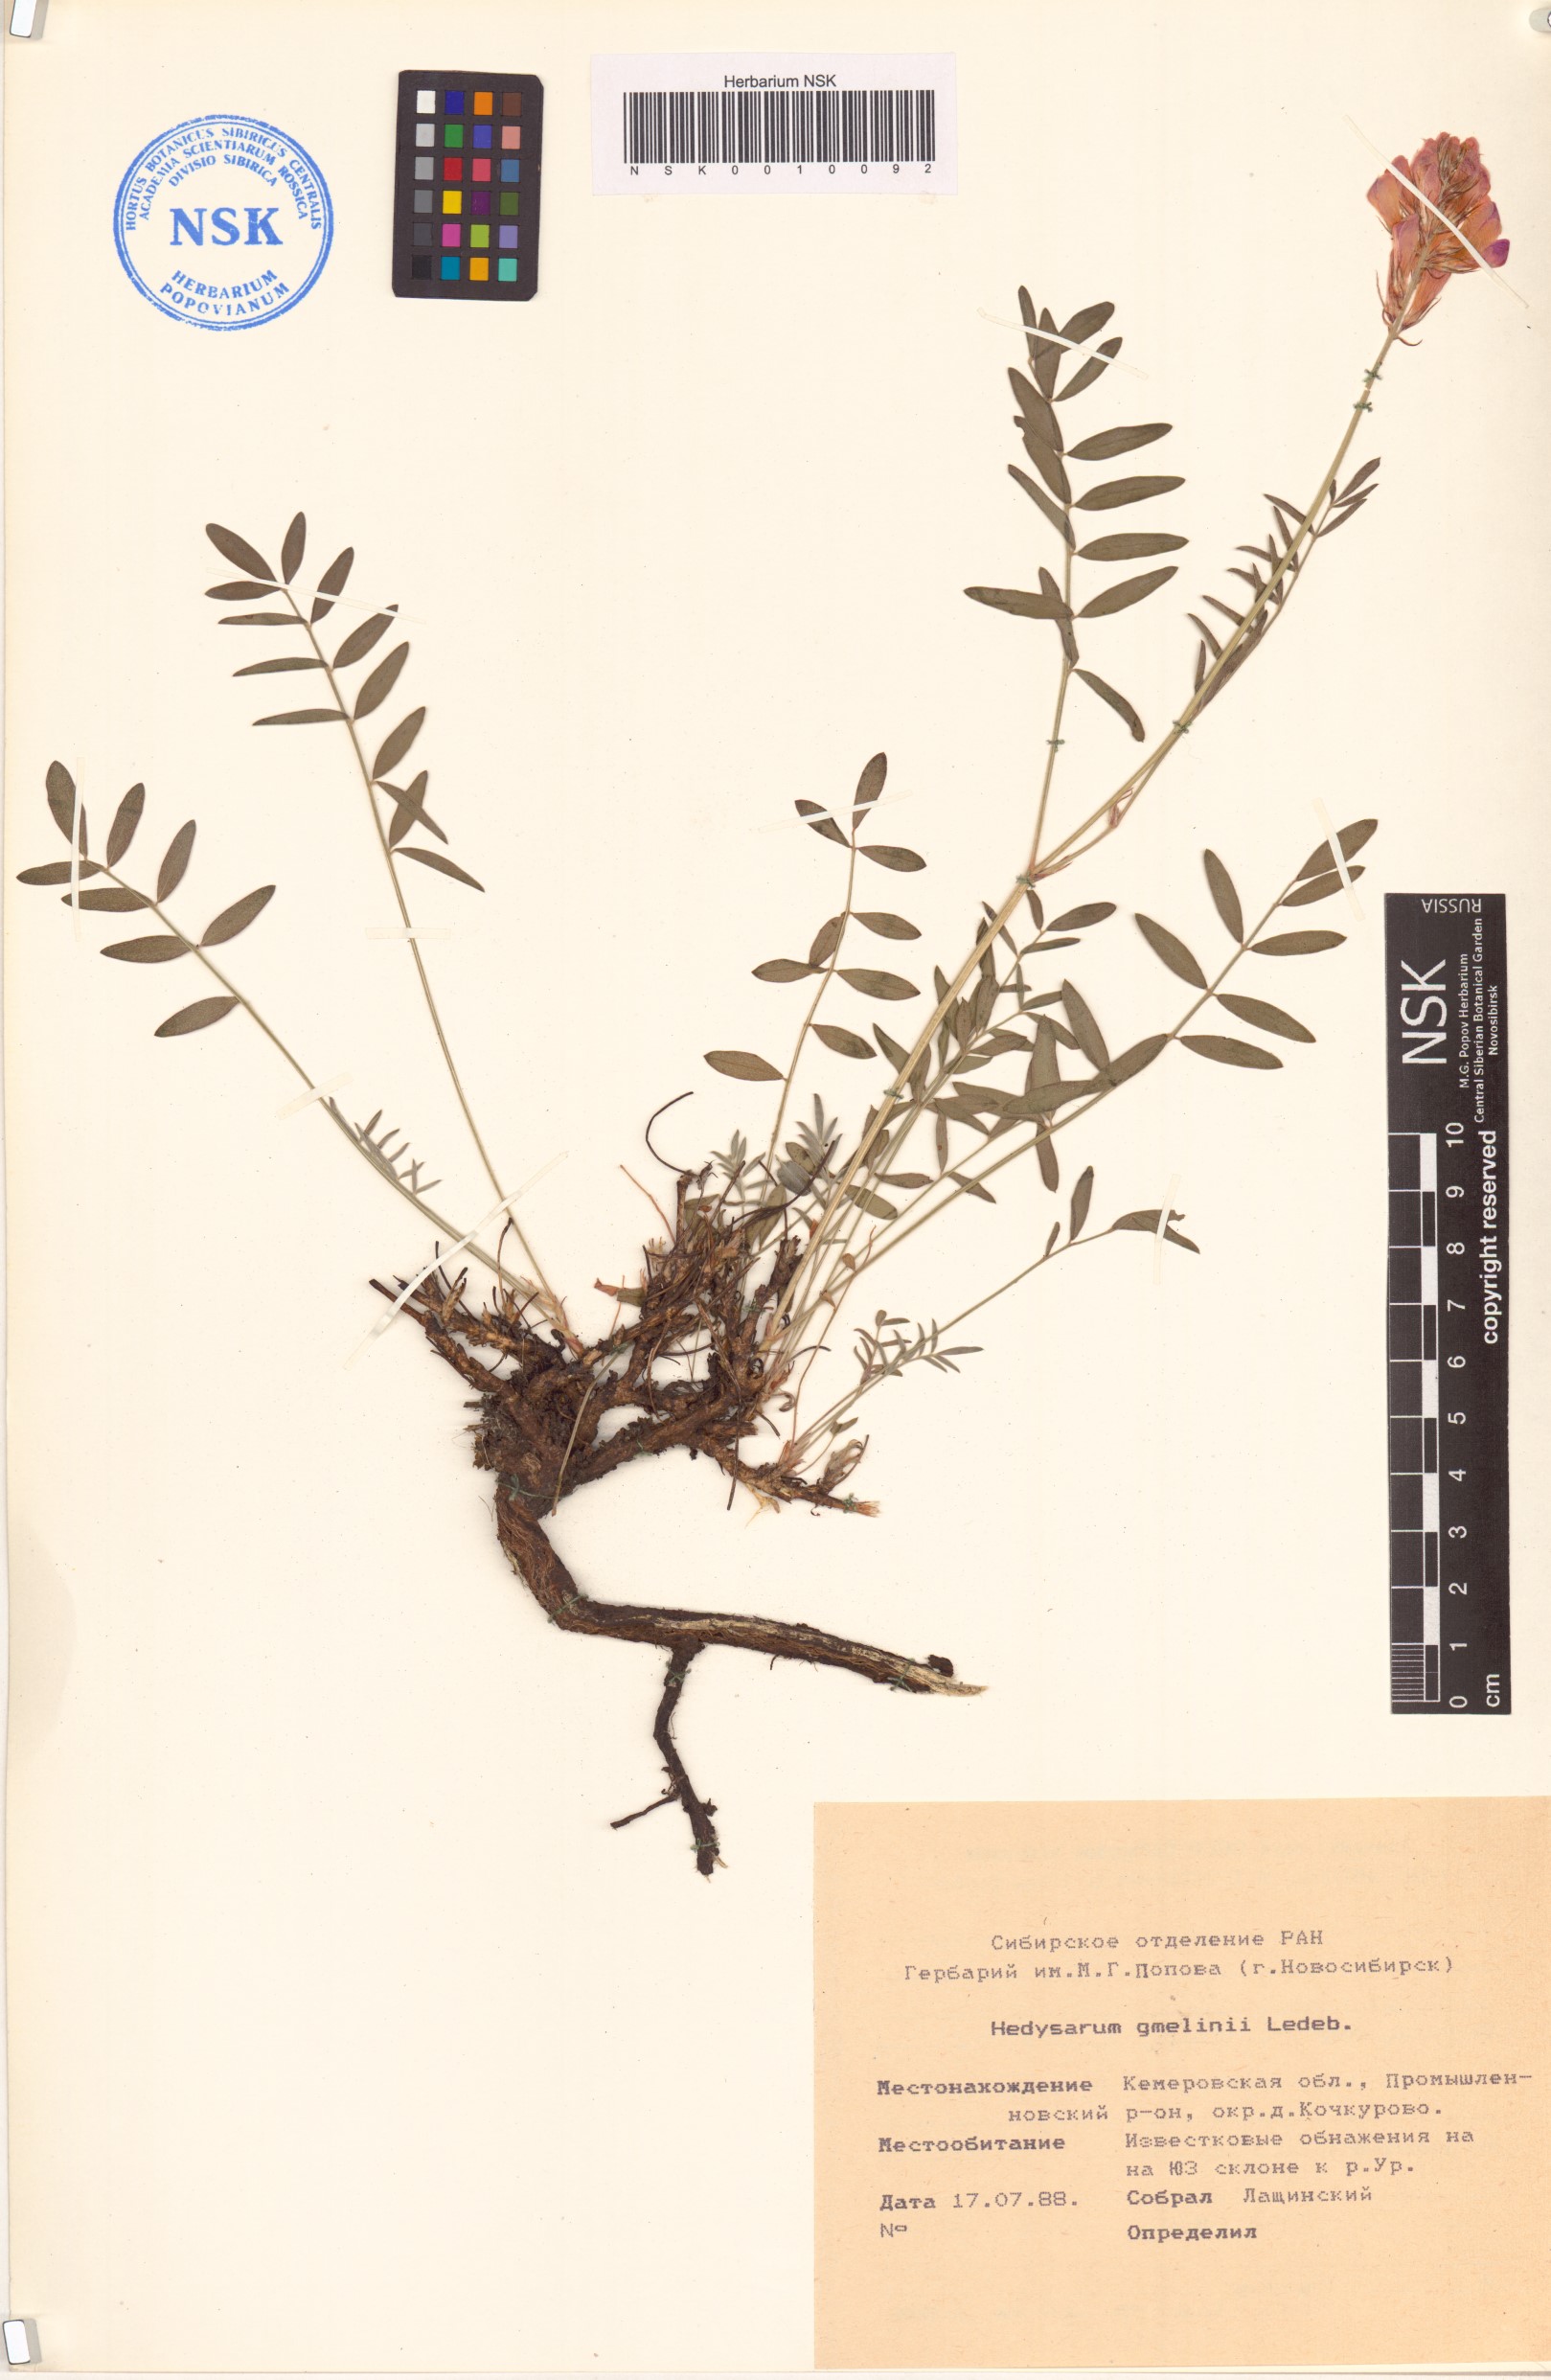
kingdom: Plantae
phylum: Tracheophyta
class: Magnoliopsida
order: Fabales
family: Fabaceae
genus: Hedysarum
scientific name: Hedysarum gmelinii
